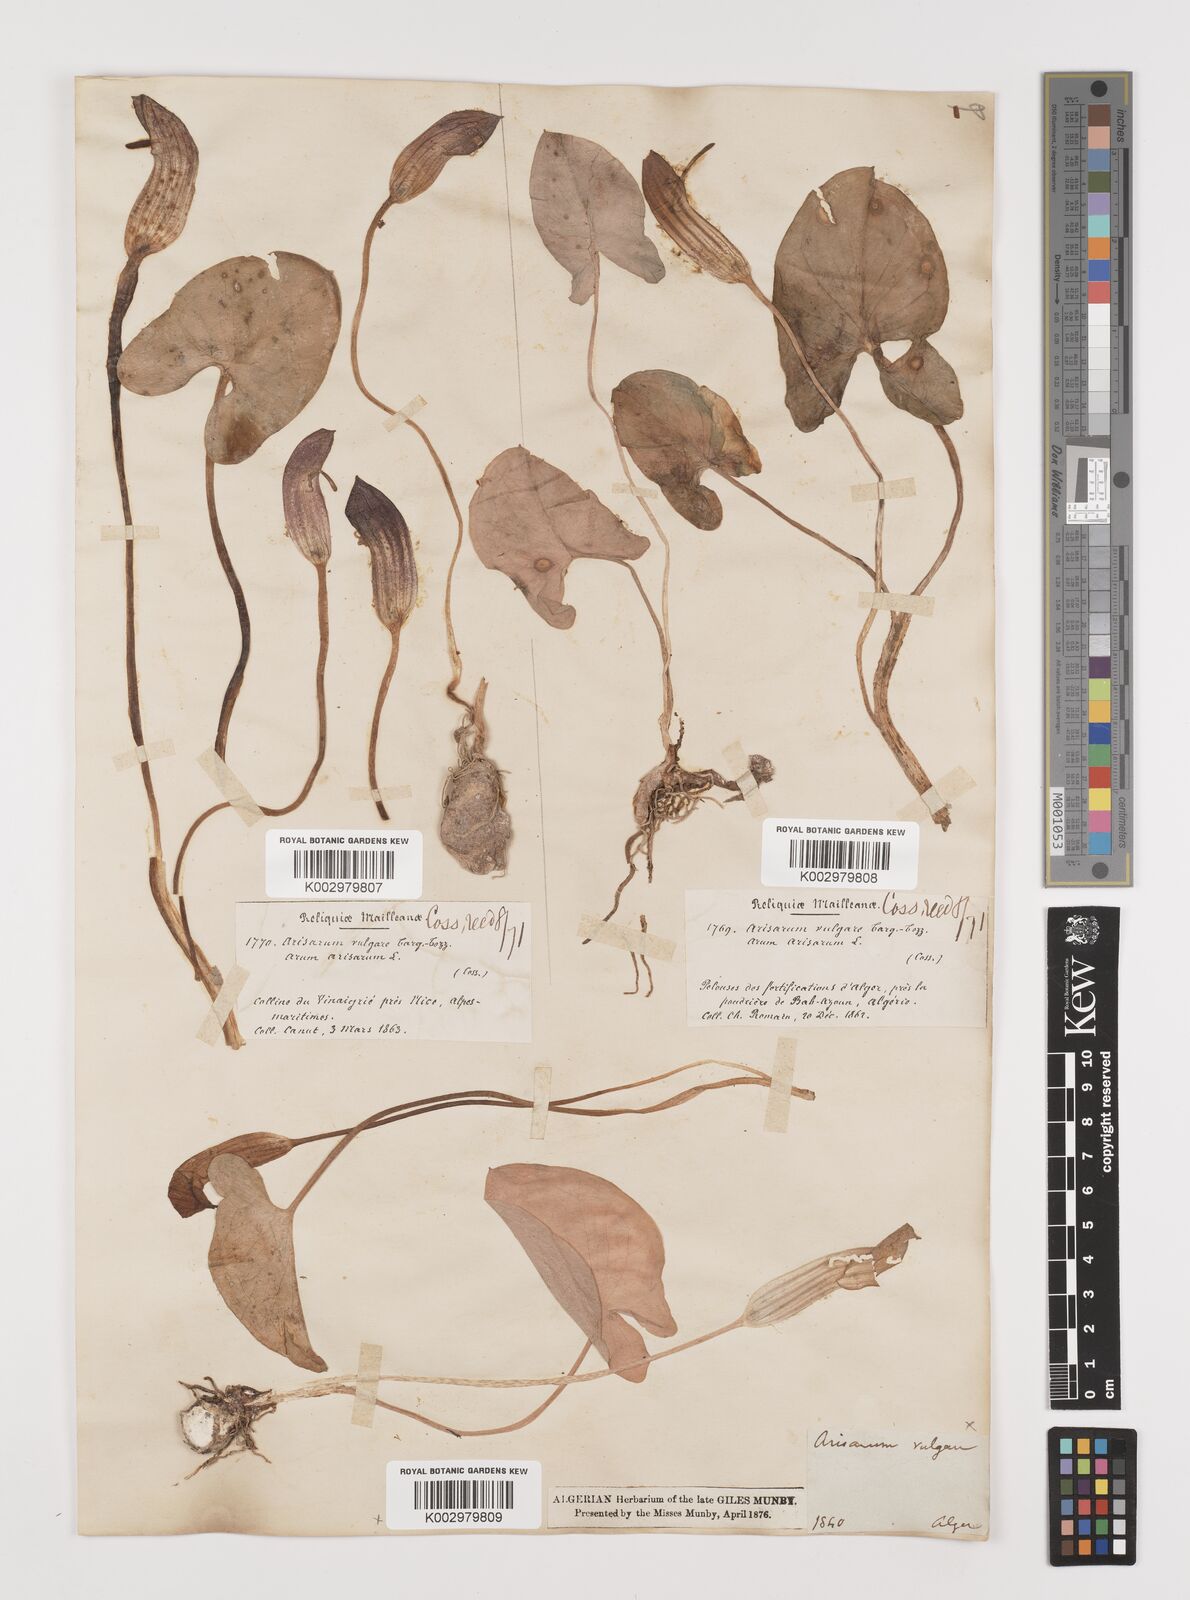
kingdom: Plantae
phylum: Tracheophyta
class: Liliopsida
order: Alismatales
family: Araceae
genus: Arisarum
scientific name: Arisarum vulgare
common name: Common arisarum
